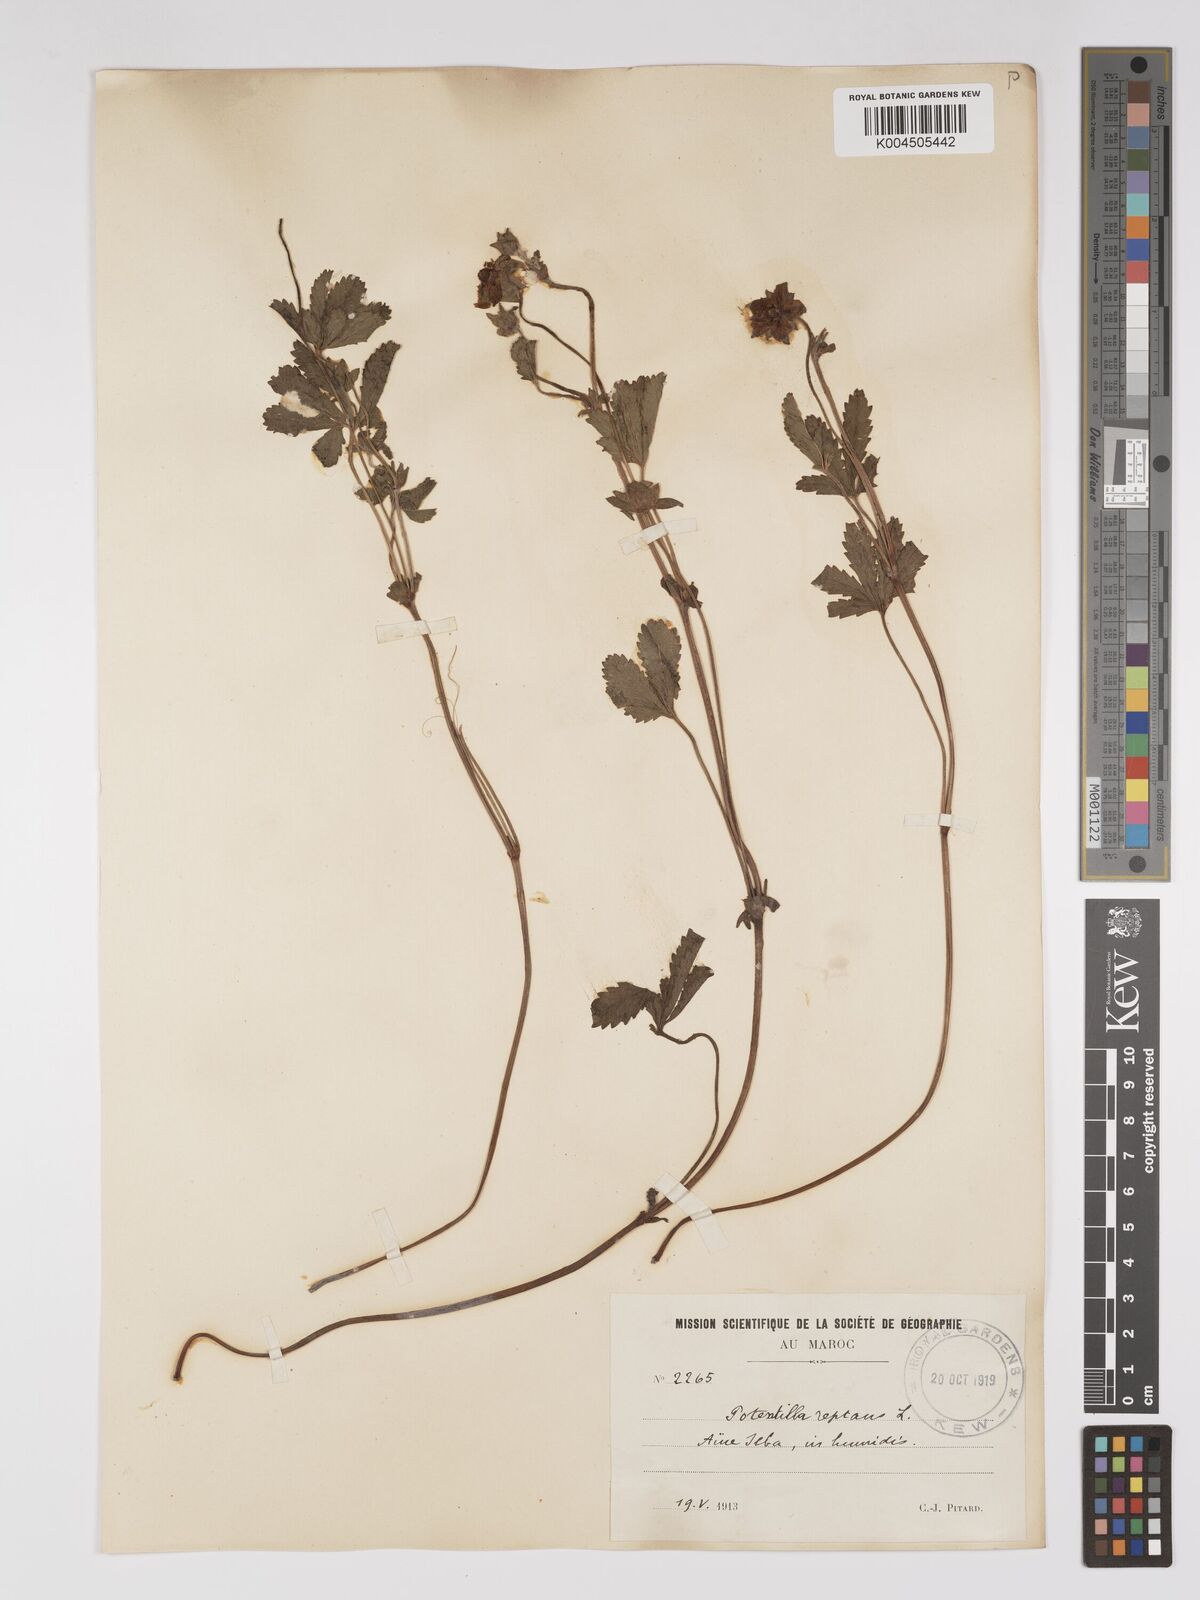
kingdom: Plantae
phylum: Tracheophyta
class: Magnoliopsida
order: Rosales
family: Rosaceae
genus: Potentilla
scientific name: Potentilla reptans
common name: Creeping cinquefoil
